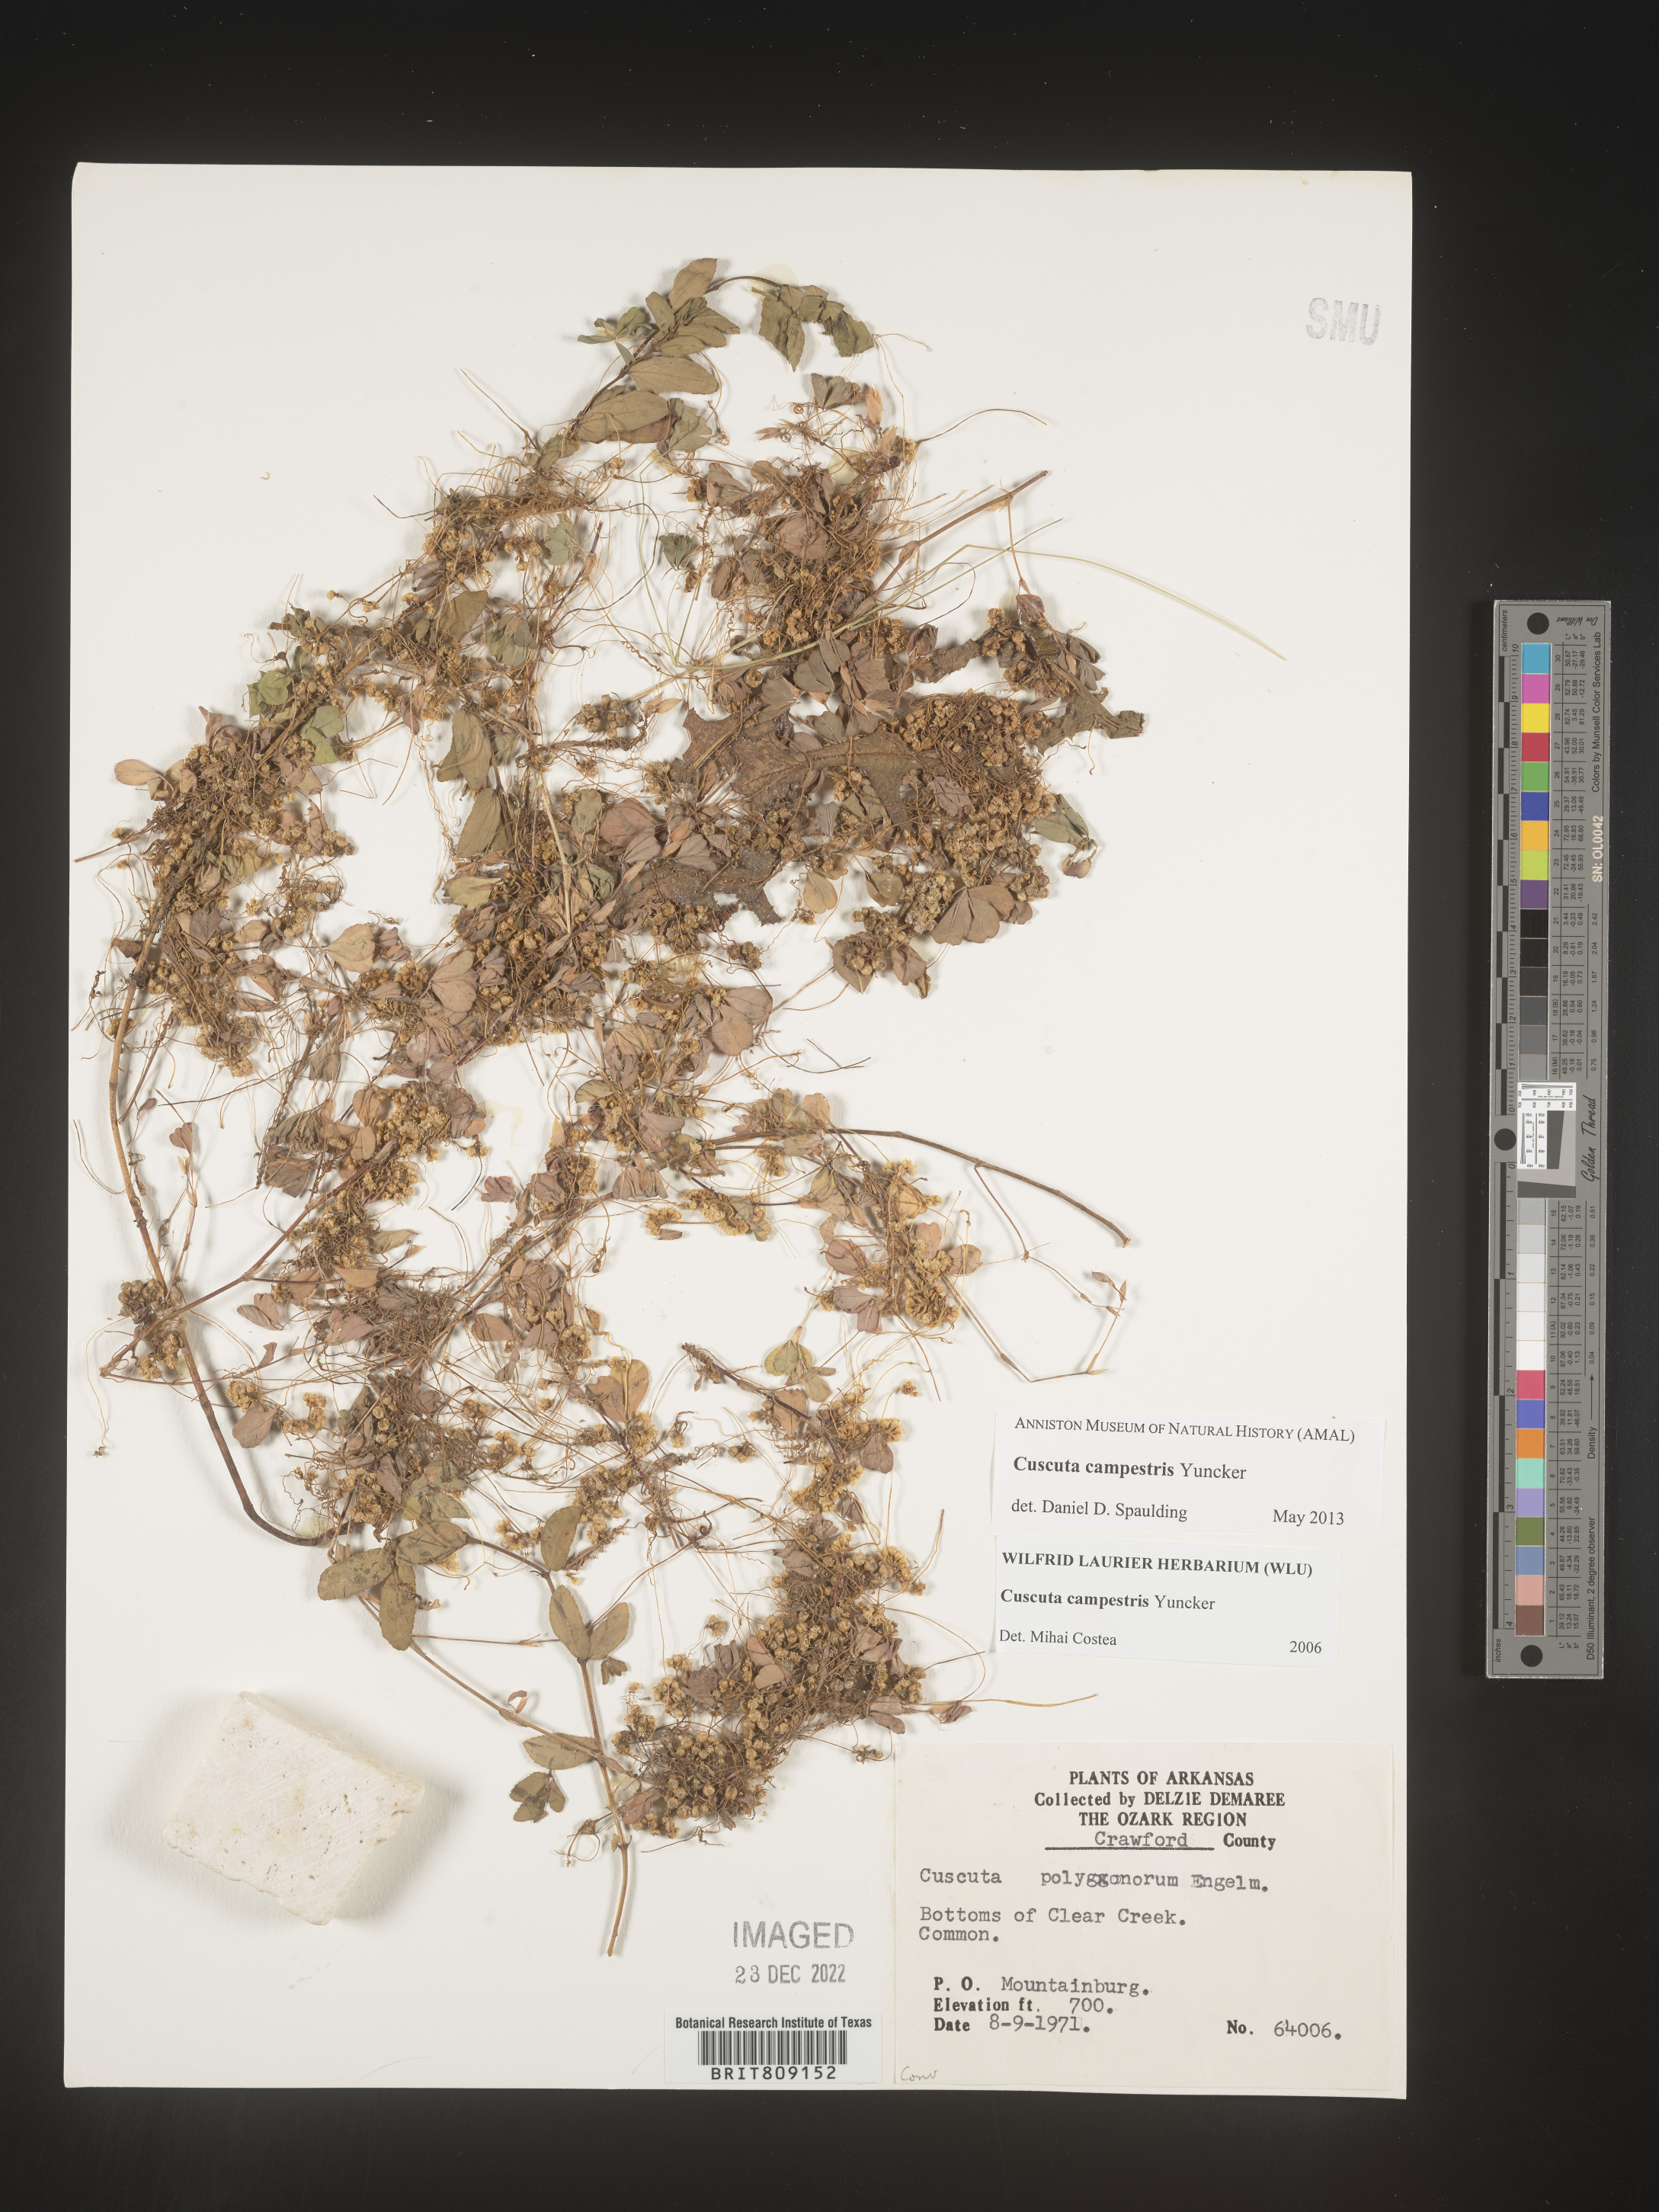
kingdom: Plantae
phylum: Tracheophyta
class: Magnoliopsida
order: Solanales
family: Convolvulaceae
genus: Cuscuta
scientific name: Cuscuta campestris
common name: Yellow dodder
